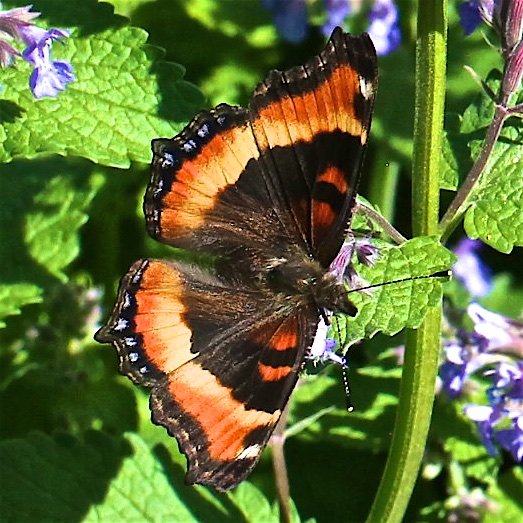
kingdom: Animalia
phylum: Arthropoda
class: Insecta
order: Lepidoptera
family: Nymphalidae
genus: Aglais
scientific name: Aglais milberti
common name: Milbert's Tortoiseshell
